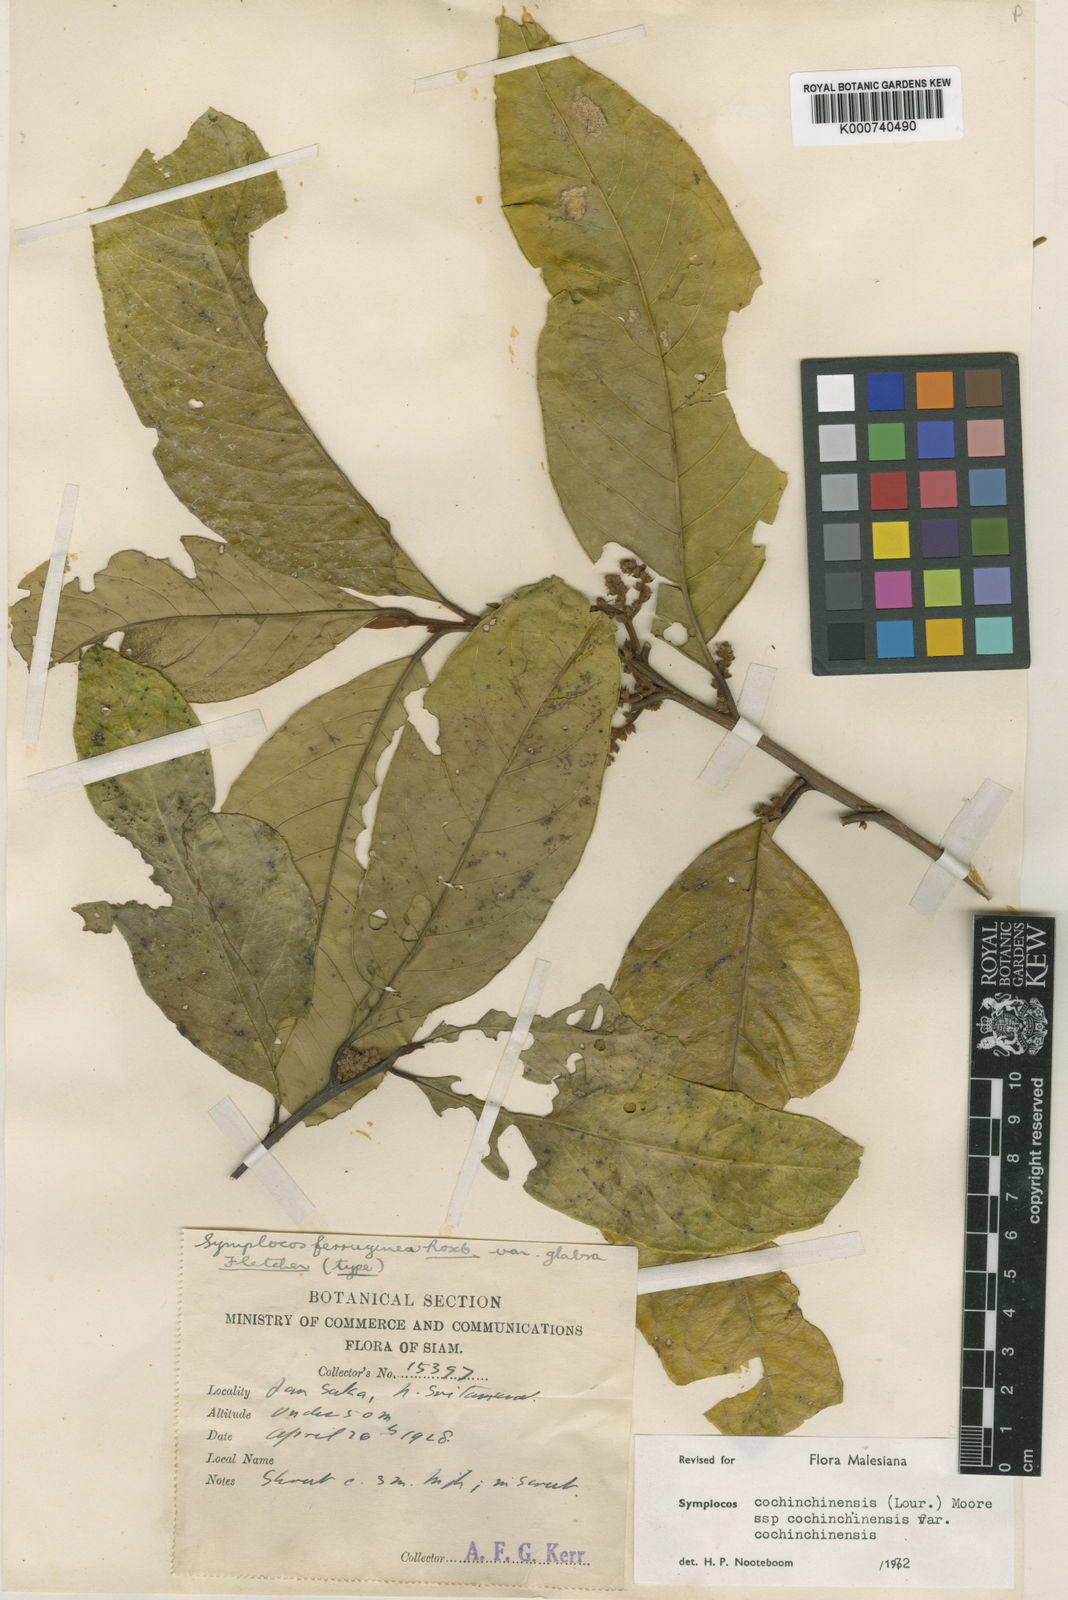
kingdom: Plantae
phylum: Tracheophyta
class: Magnoliopsida
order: Ericales
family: Symplocaceae
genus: Symplocos
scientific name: Symplocos cochinchinensis
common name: Buff hazelwood
